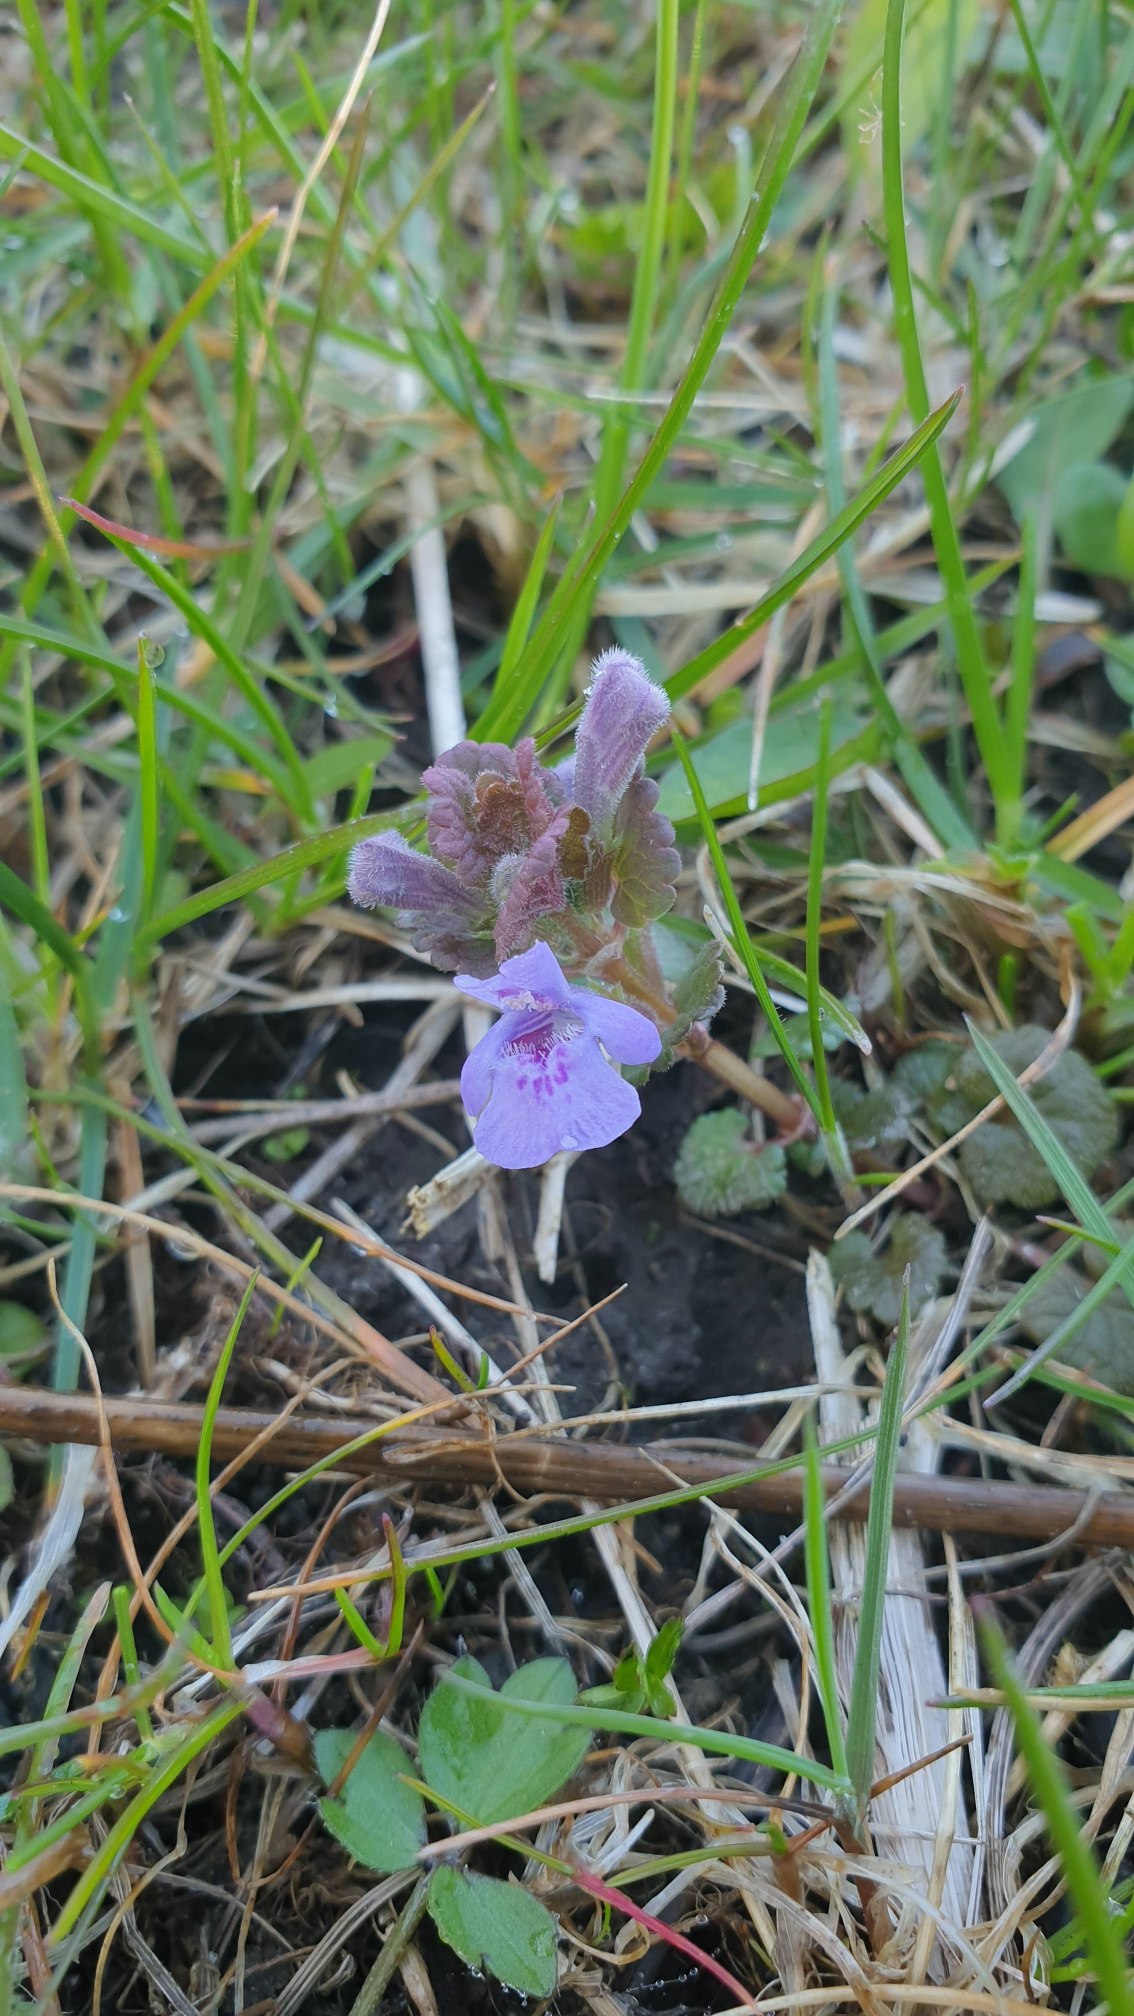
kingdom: Plantae
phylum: Tracheophyta
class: Magnoliopsida
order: Lamiales
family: Lamiaceae
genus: Glechoma
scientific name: Glechoma hederacea
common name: Korsknap
